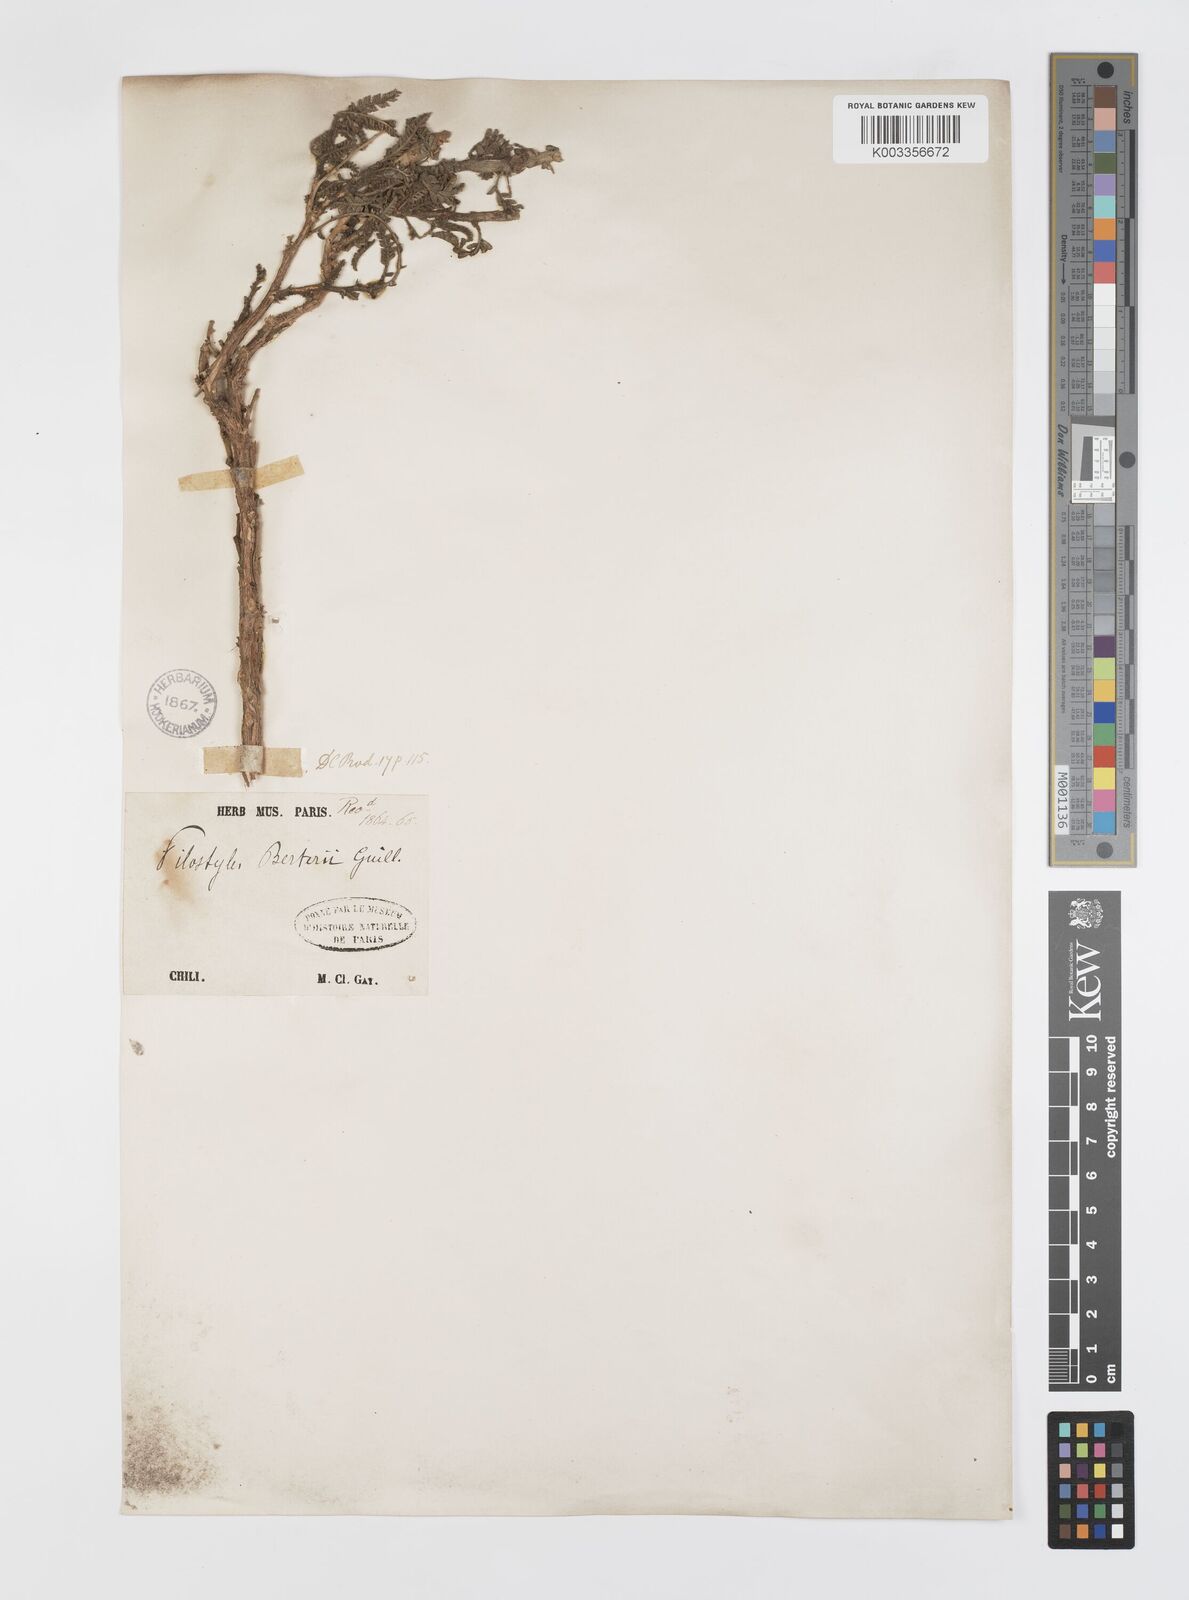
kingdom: Plantae
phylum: Tracheophyta
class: Magnoliopsida
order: Cucurbitales
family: Apodanthaceae
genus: Pilostyles
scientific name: Pilostyles berteroi
